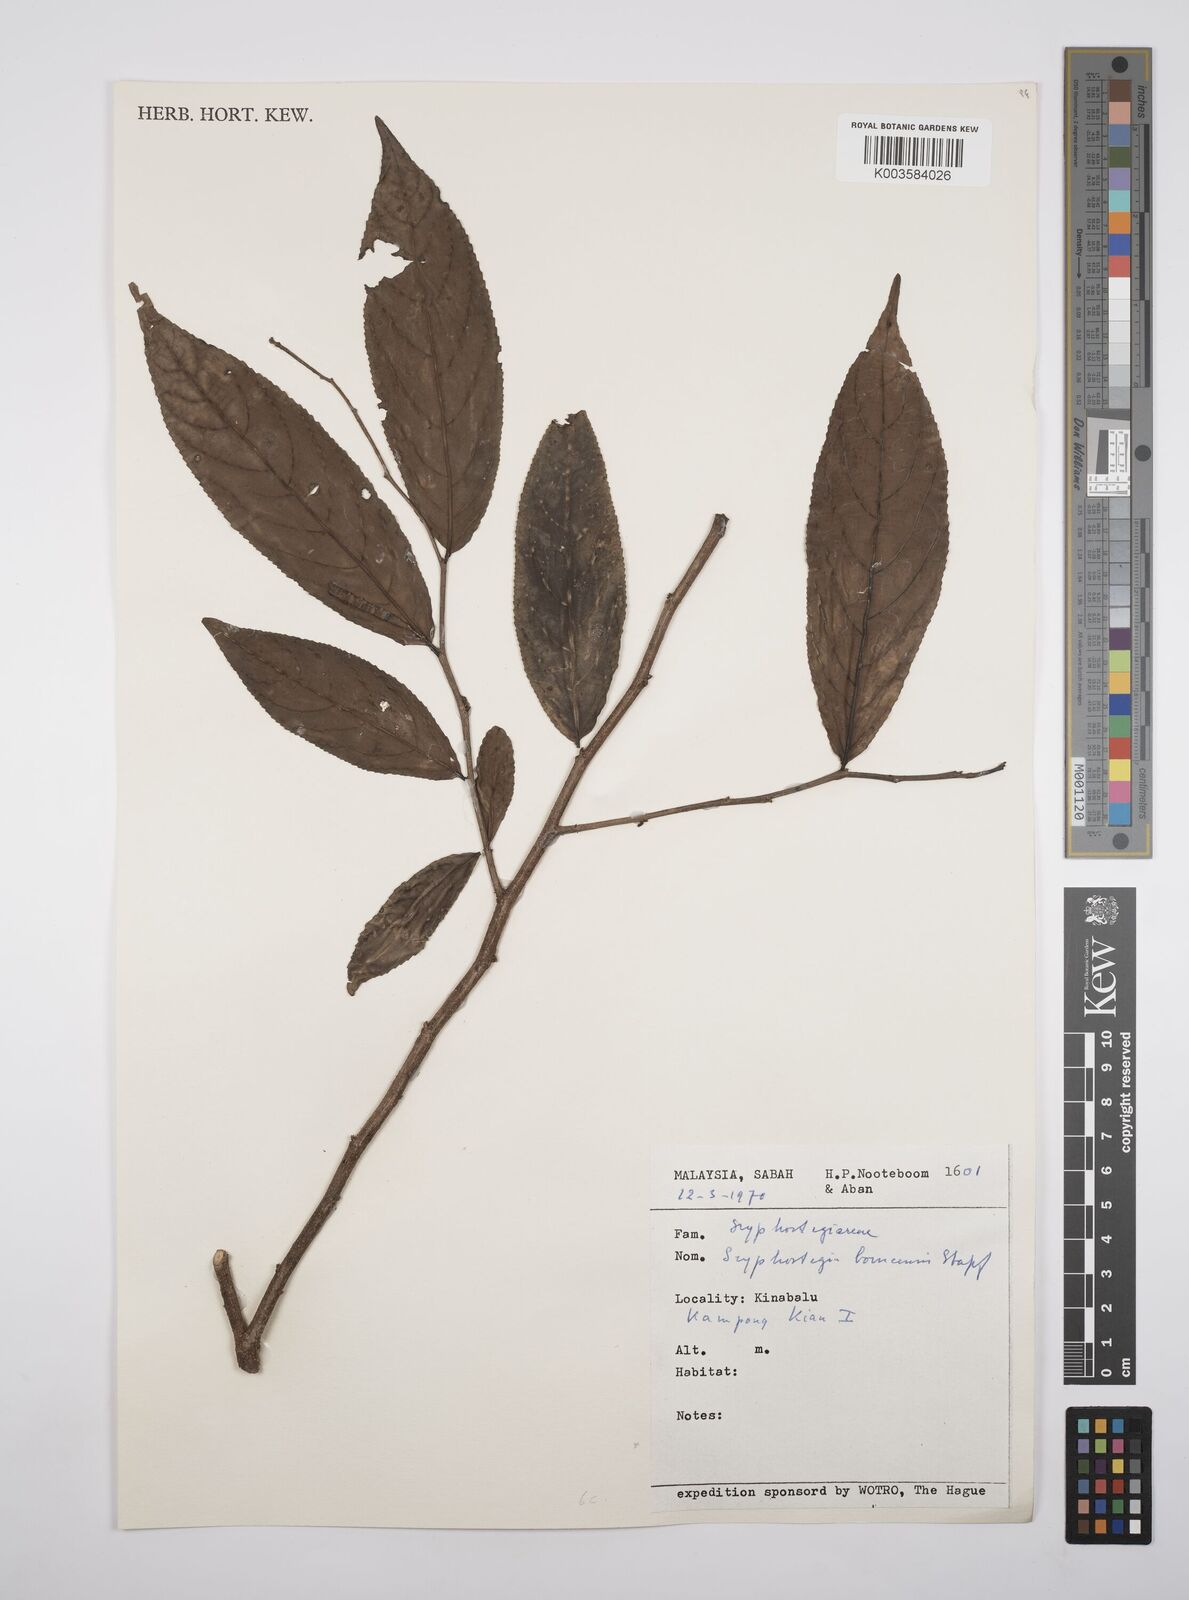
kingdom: Plantae
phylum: Tracheophyta
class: Magnoliopsida
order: Malpighiales
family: Salicaceae
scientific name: Salicaceae
